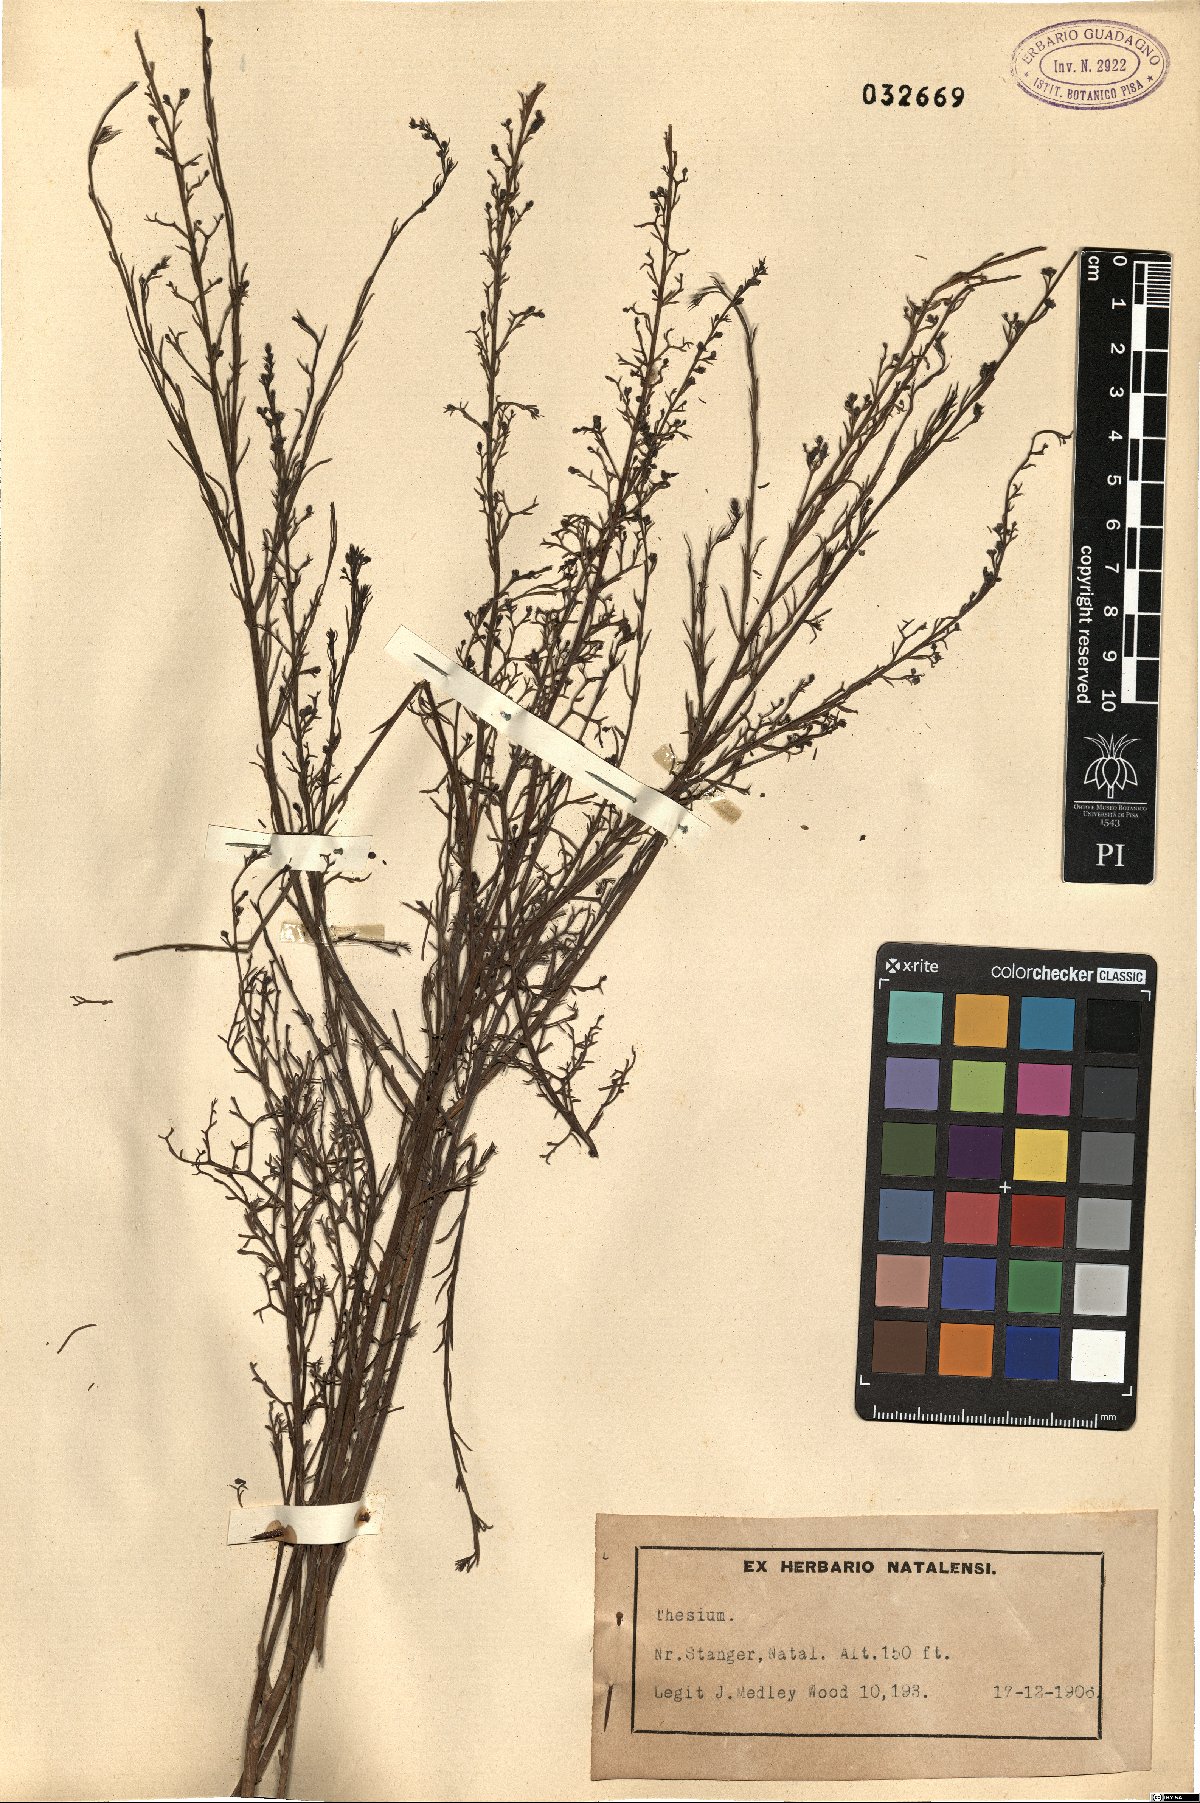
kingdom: Plantae
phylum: Tracheophyta
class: Magnoliopsida
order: Santalales
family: Thesiaceae
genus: Thesium
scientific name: Thesium
